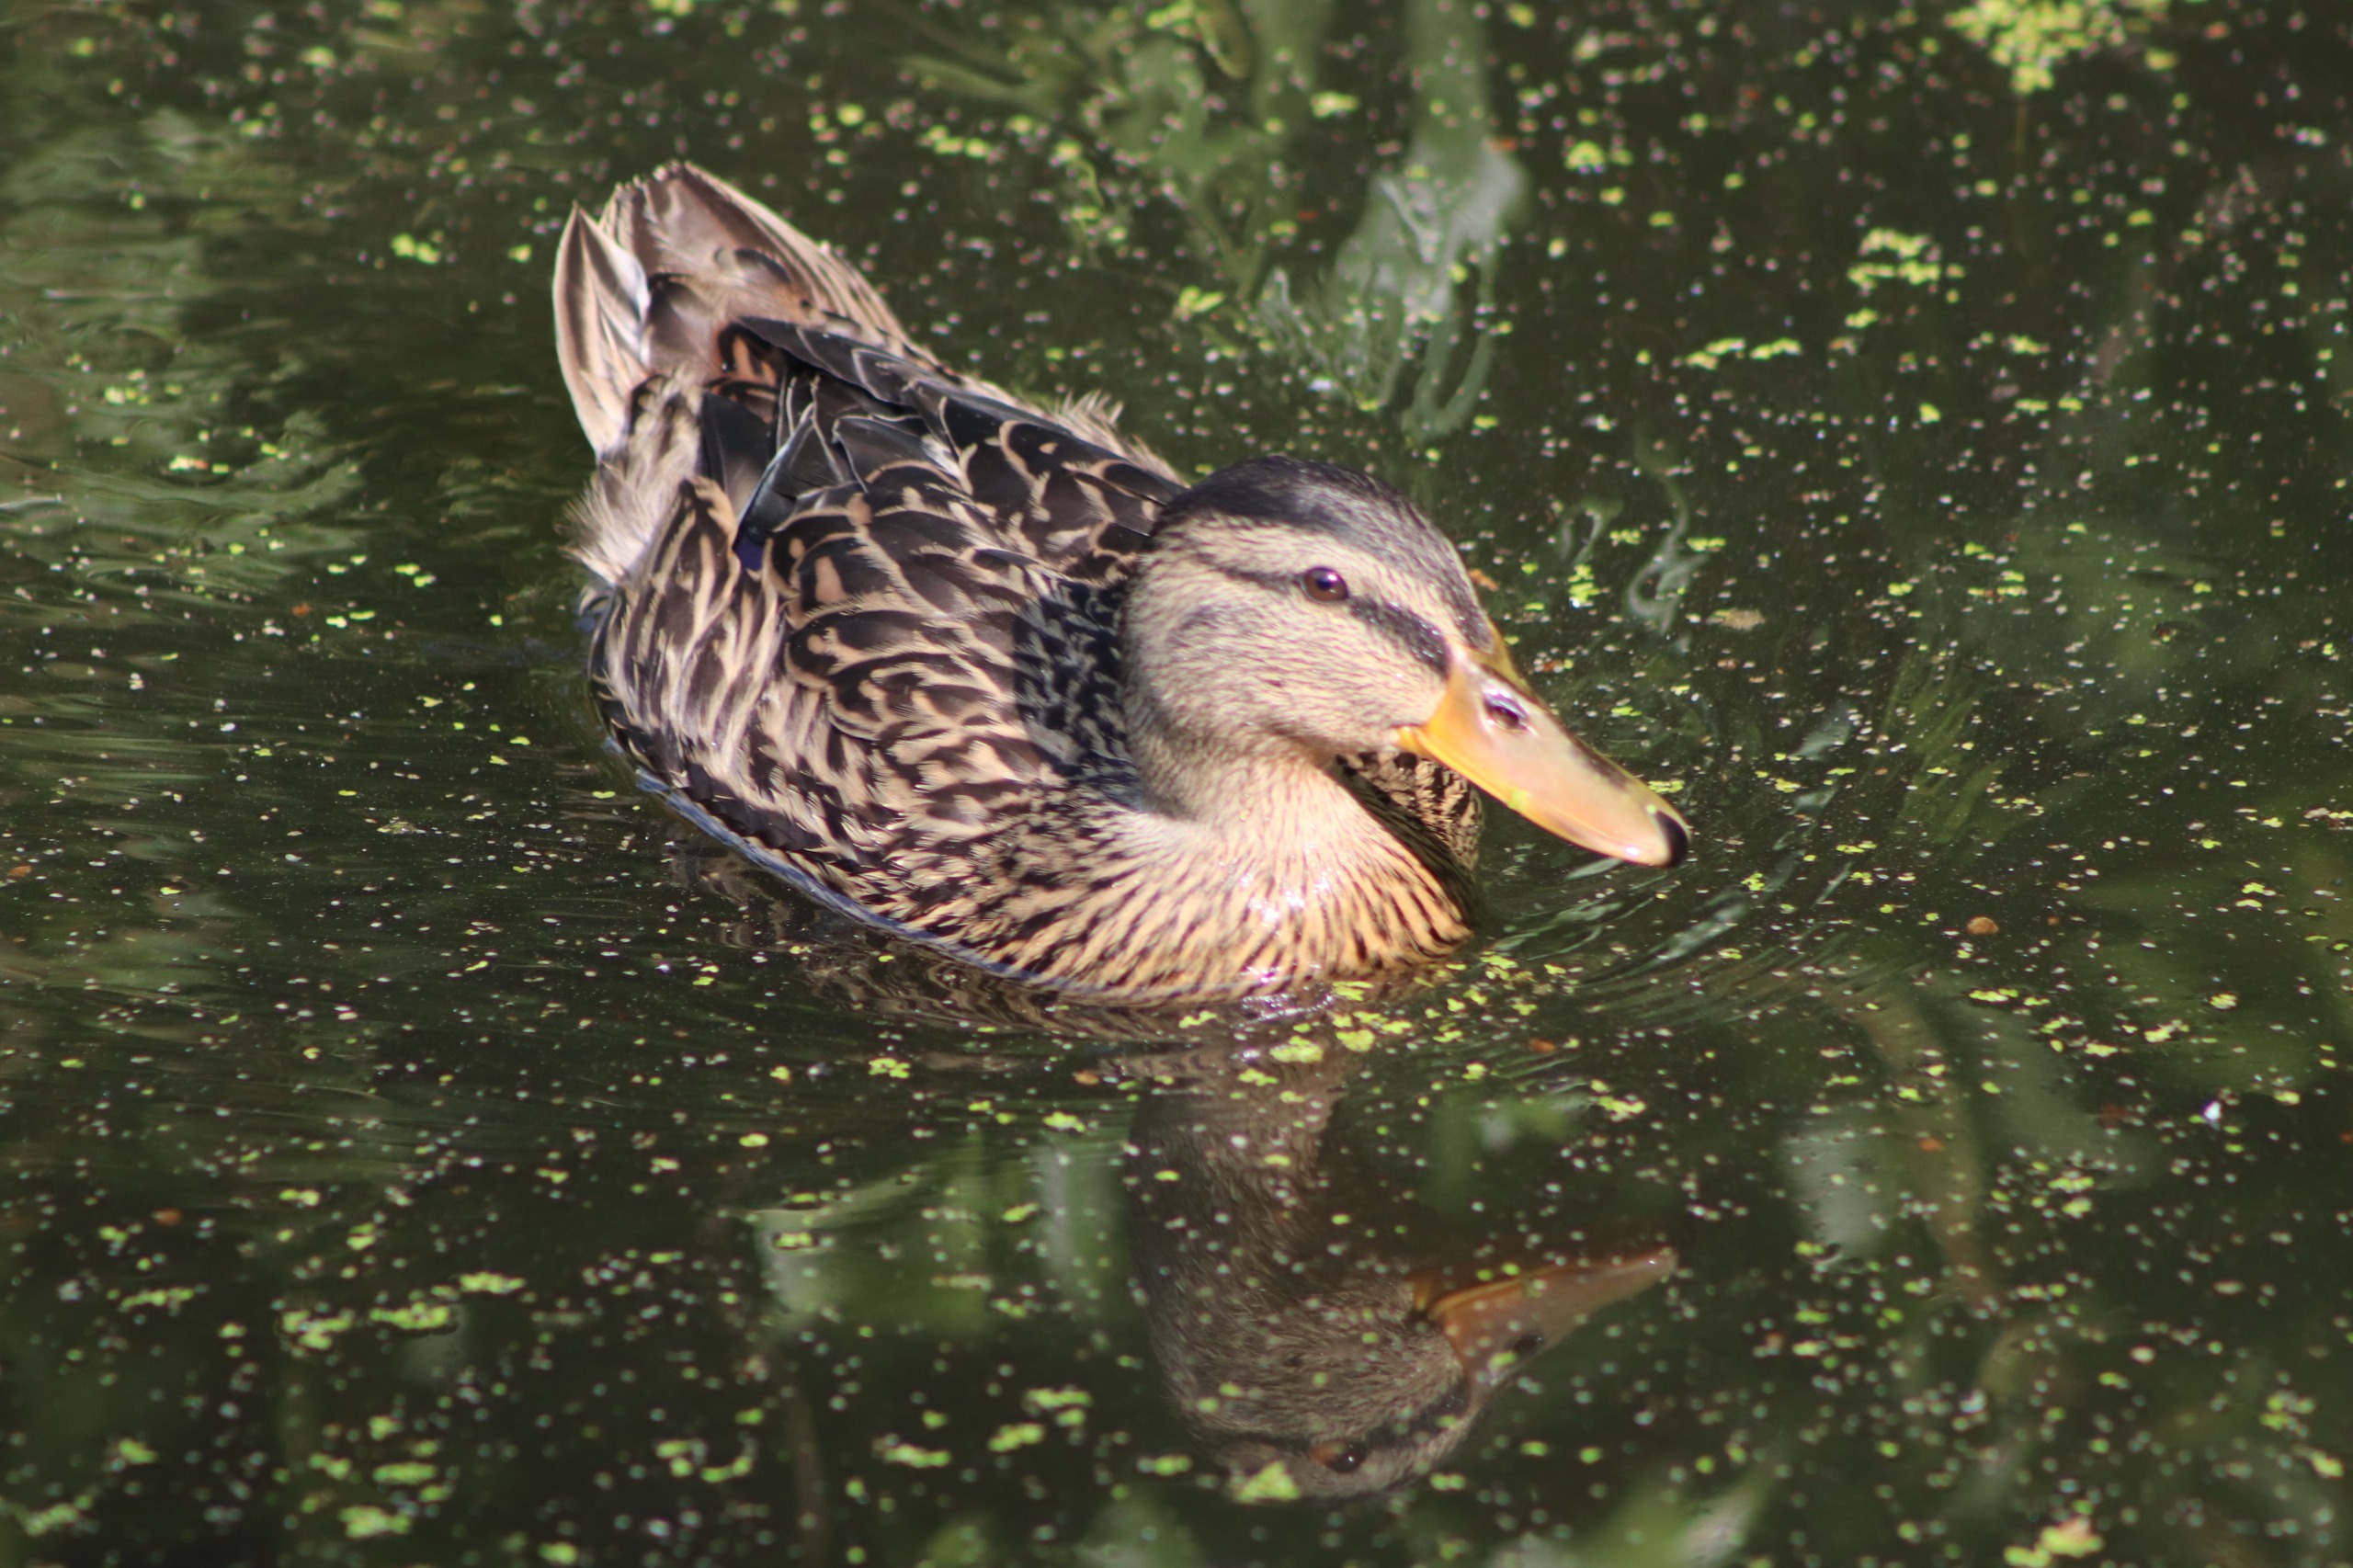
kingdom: Animalia
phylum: Chordata
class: Aves
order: Anseriformes
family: Anatidae
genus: Anas
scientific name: Anas platyrhynchos
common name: Gråand
